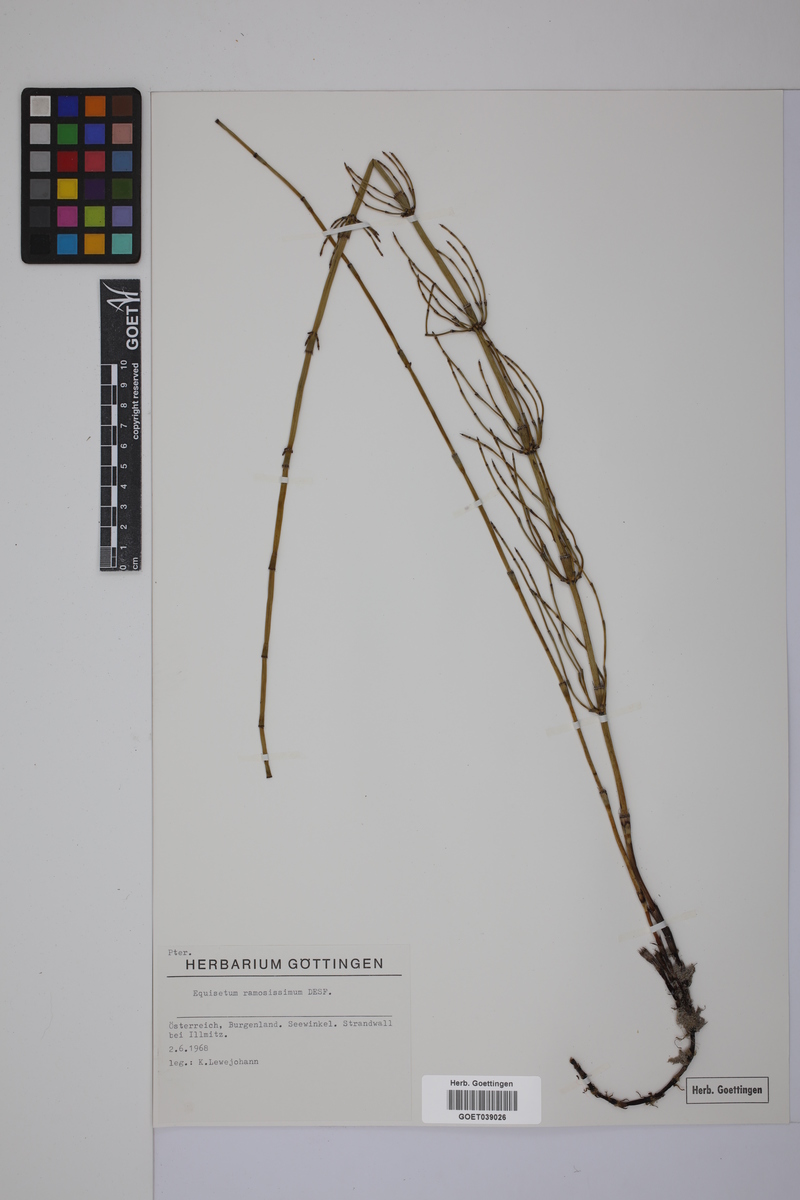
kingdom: Plantae
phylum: Tracheophyta
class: Polypodiopsida
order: Equisetales
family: Equisetaceae
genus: Equisetum
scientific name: Equisetum giganteum
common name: Giant horsetail
